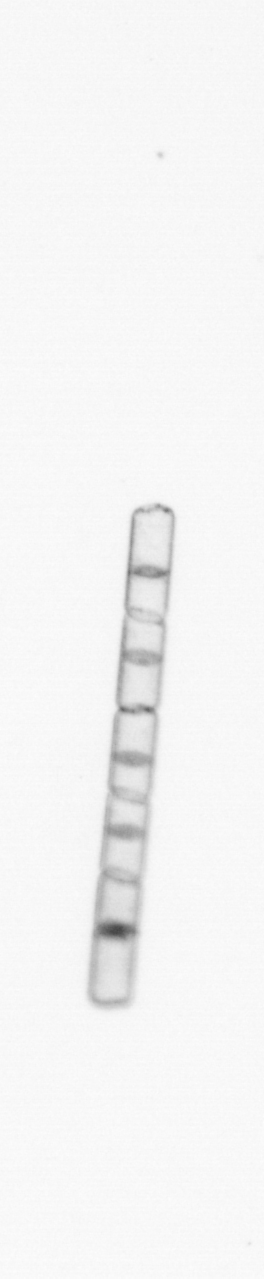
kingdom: Chromista
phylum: Ochrophyta
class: Bacillariophyceae
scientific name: Bacillariophyceae
